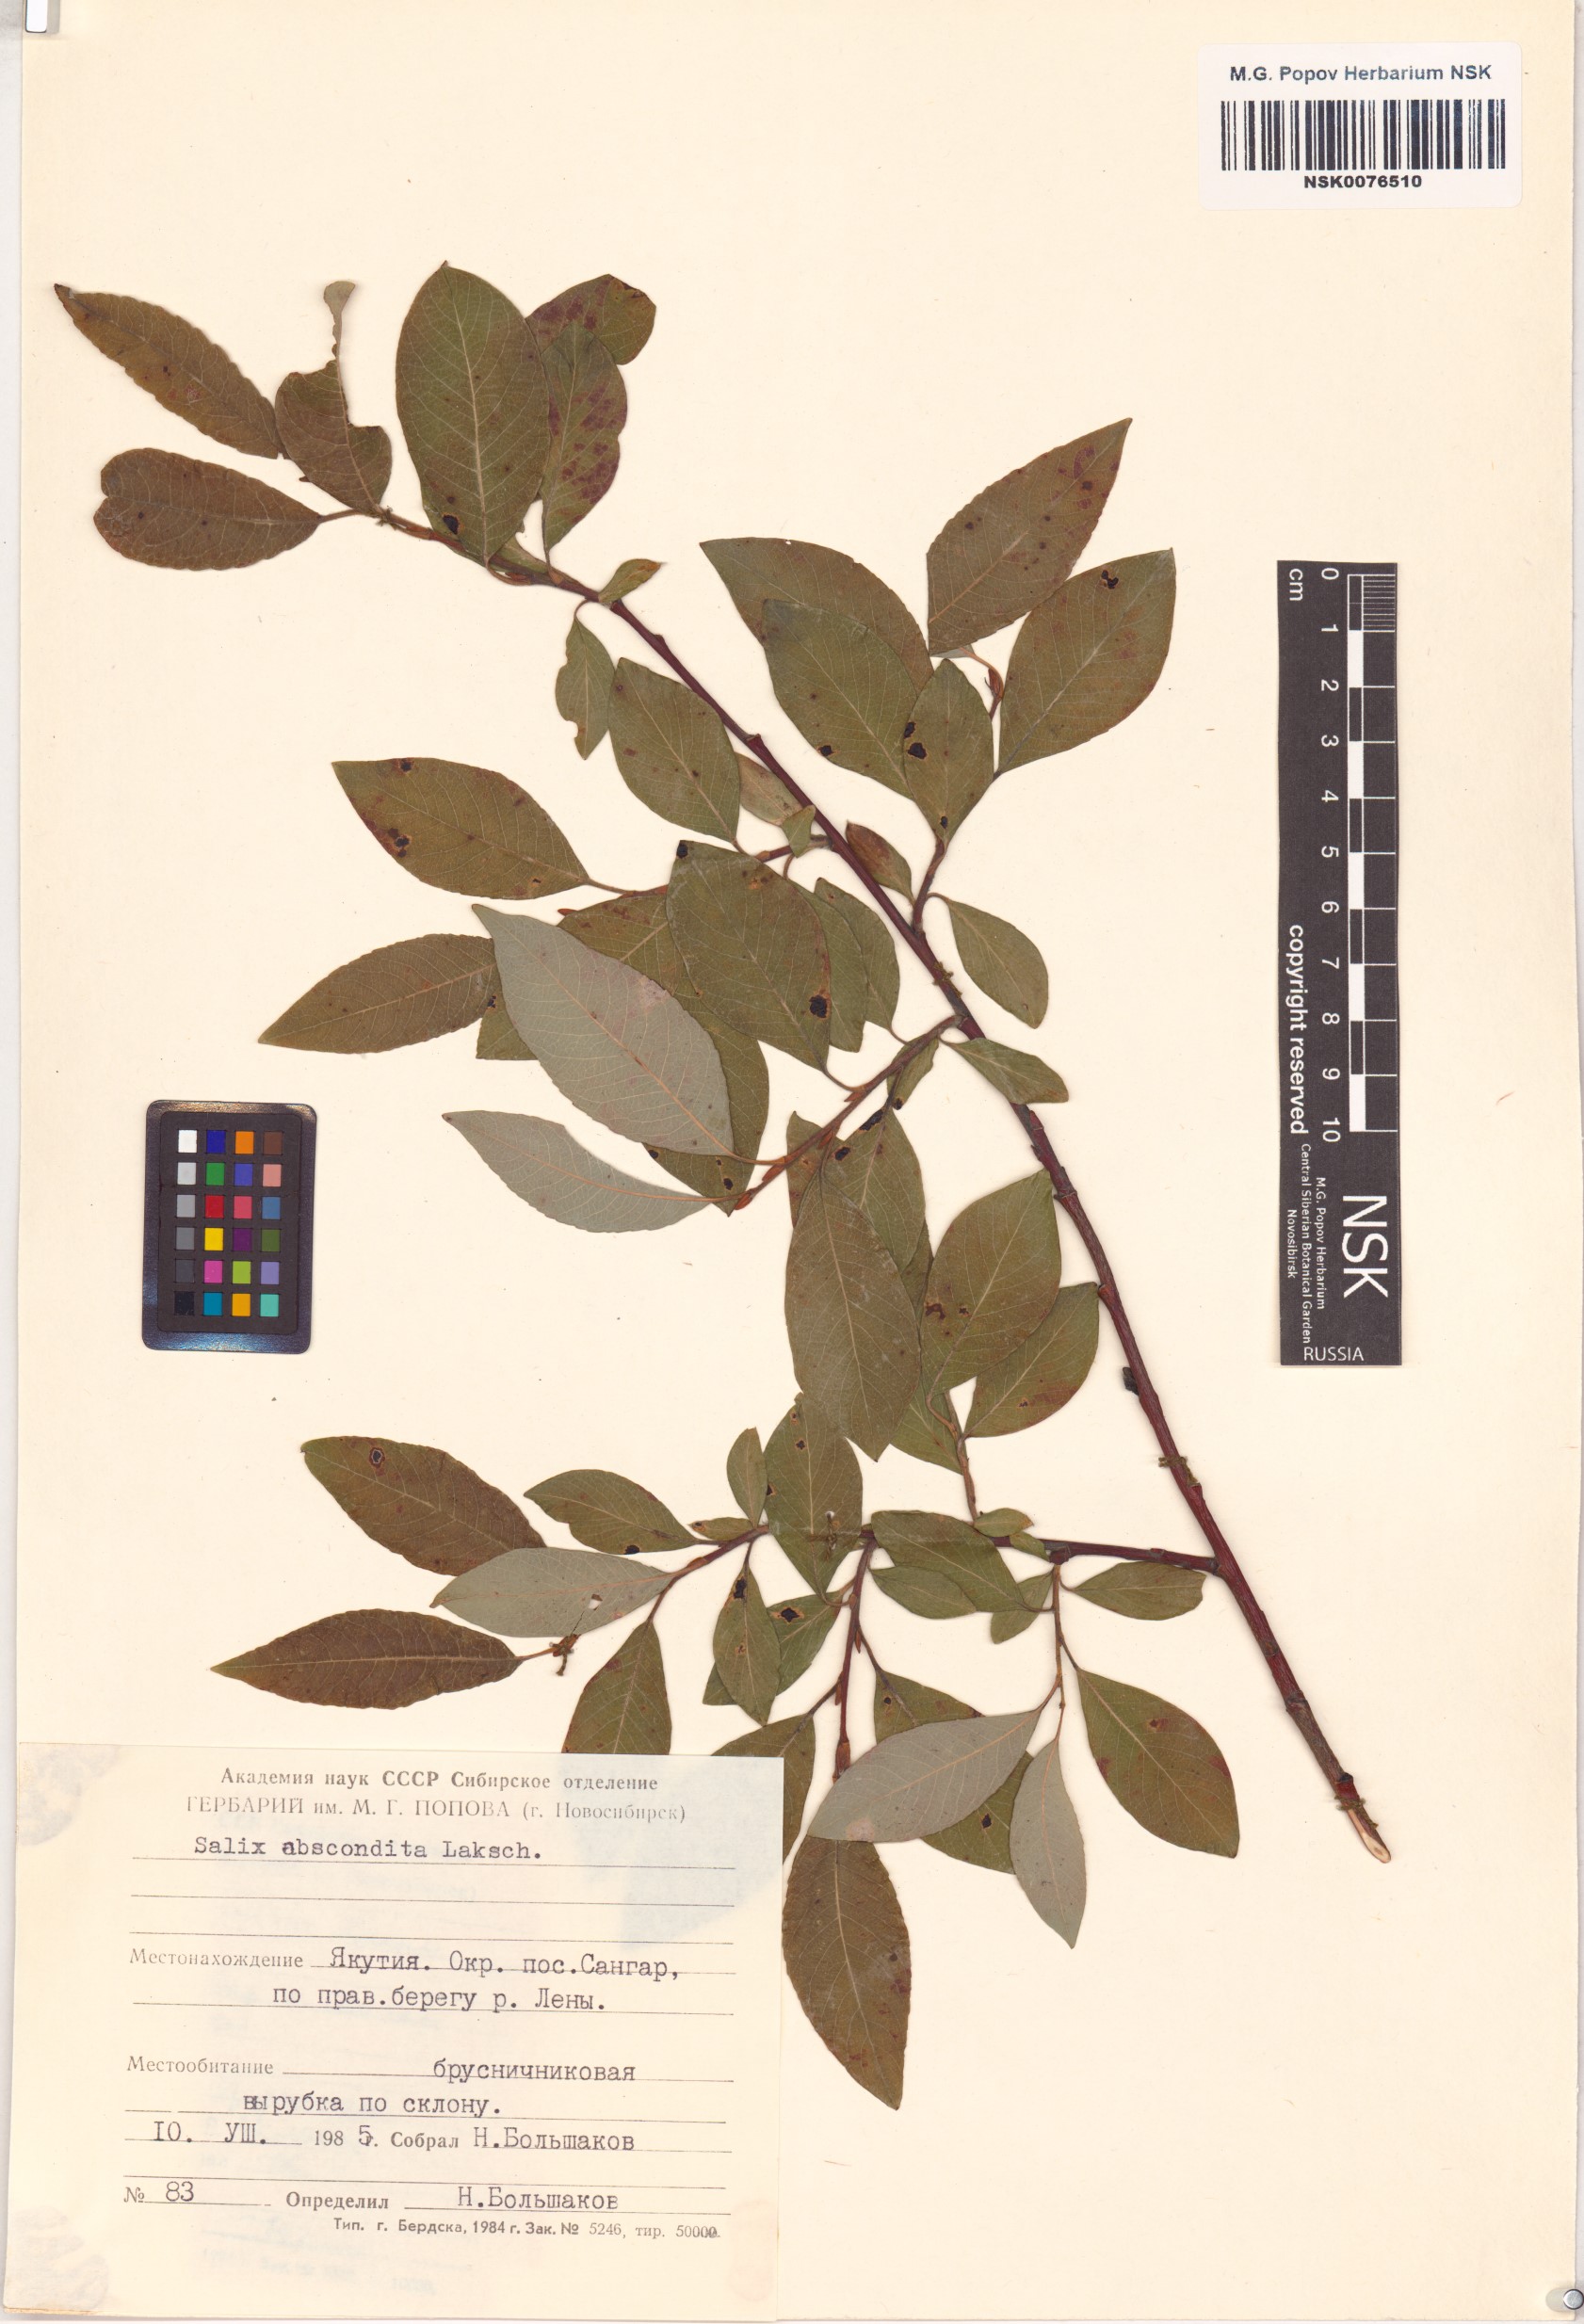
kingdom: Plantae
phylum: Tracheophyta
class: Magnoliopsida
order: Malpighiales
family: Salicaceae
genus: Salix
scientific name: Salix abscondita
